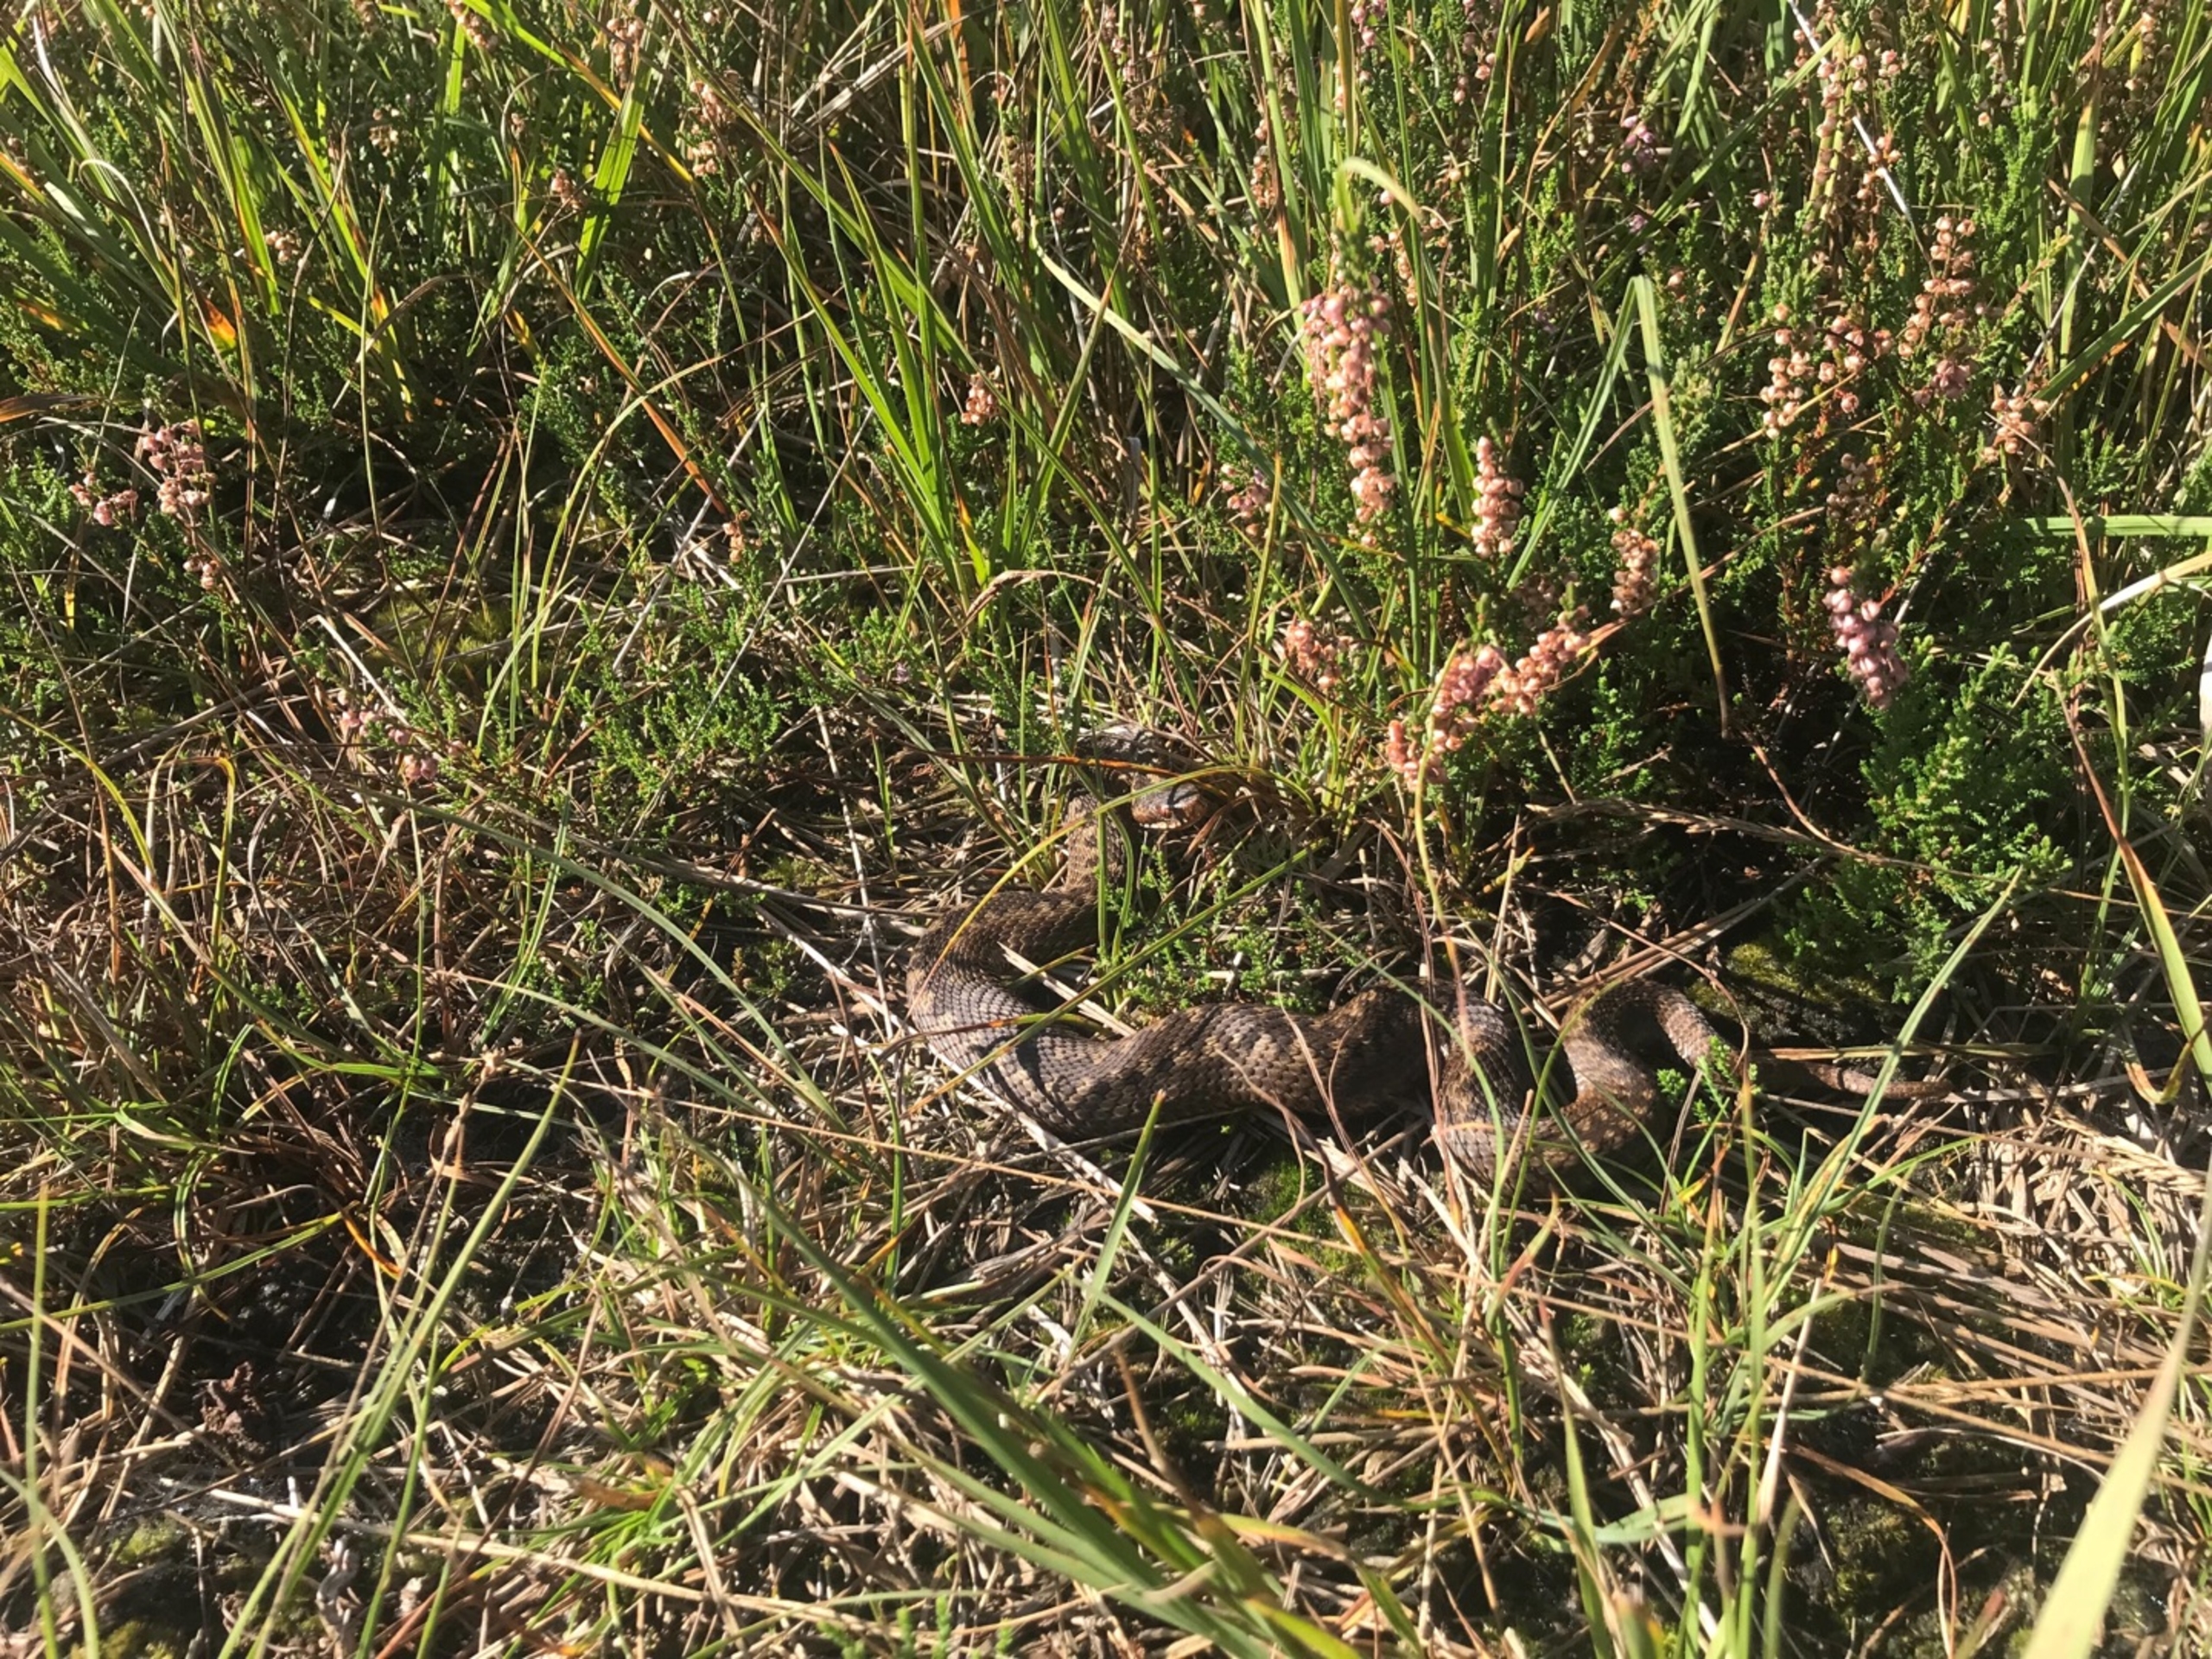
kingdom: Animalia
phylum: Chordata
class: Squamata
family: Viperidae
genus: Vipera
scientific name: Vipera berus
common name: Hugorm
